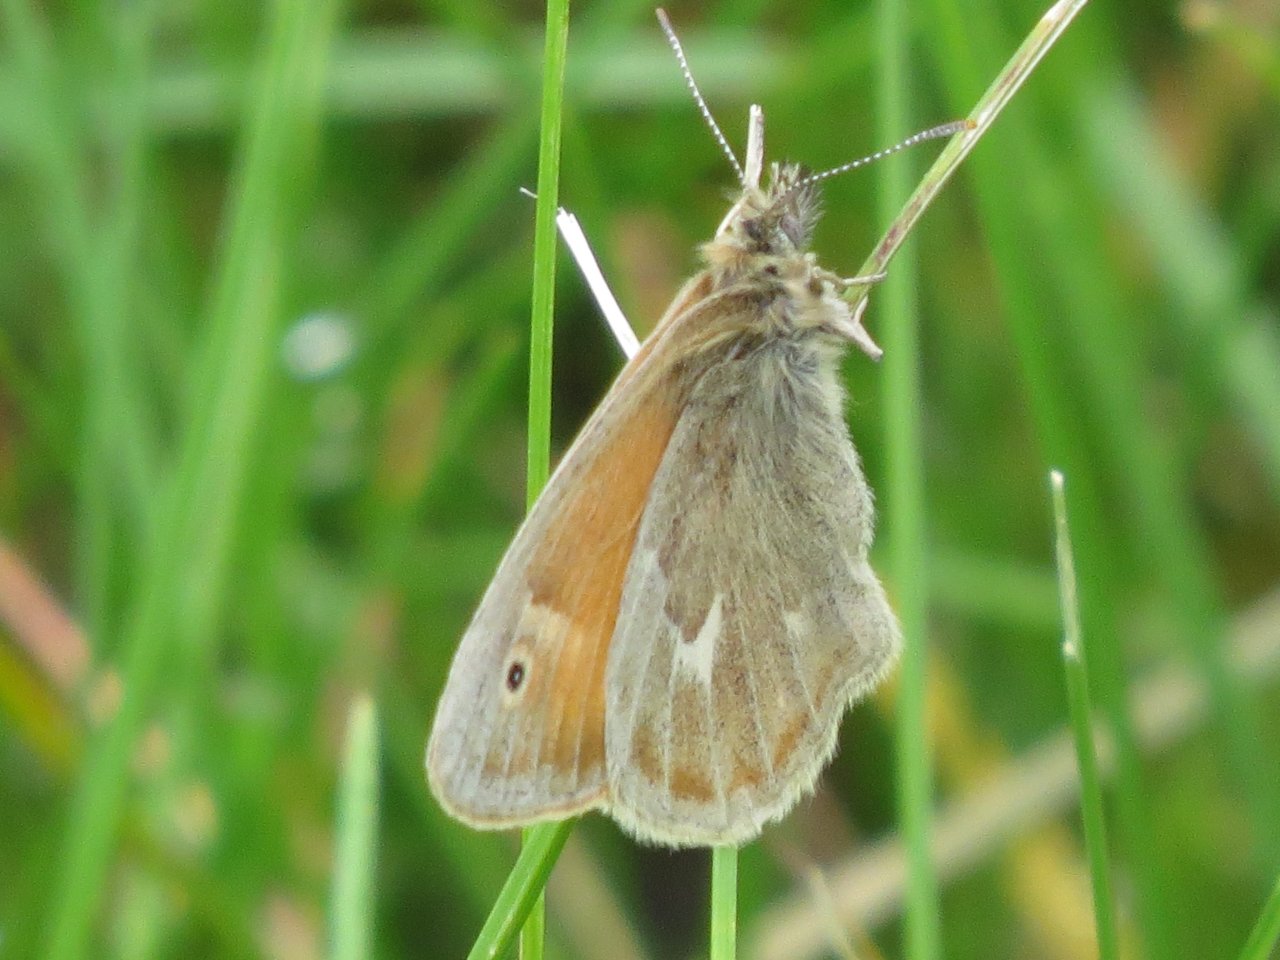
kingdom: Animalia
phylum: Arthropoda
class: Insecta
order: Lepidoptera
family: Nymphalidae
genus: Coenonympha
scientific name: Coenonympha tullia
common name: Large Heath
